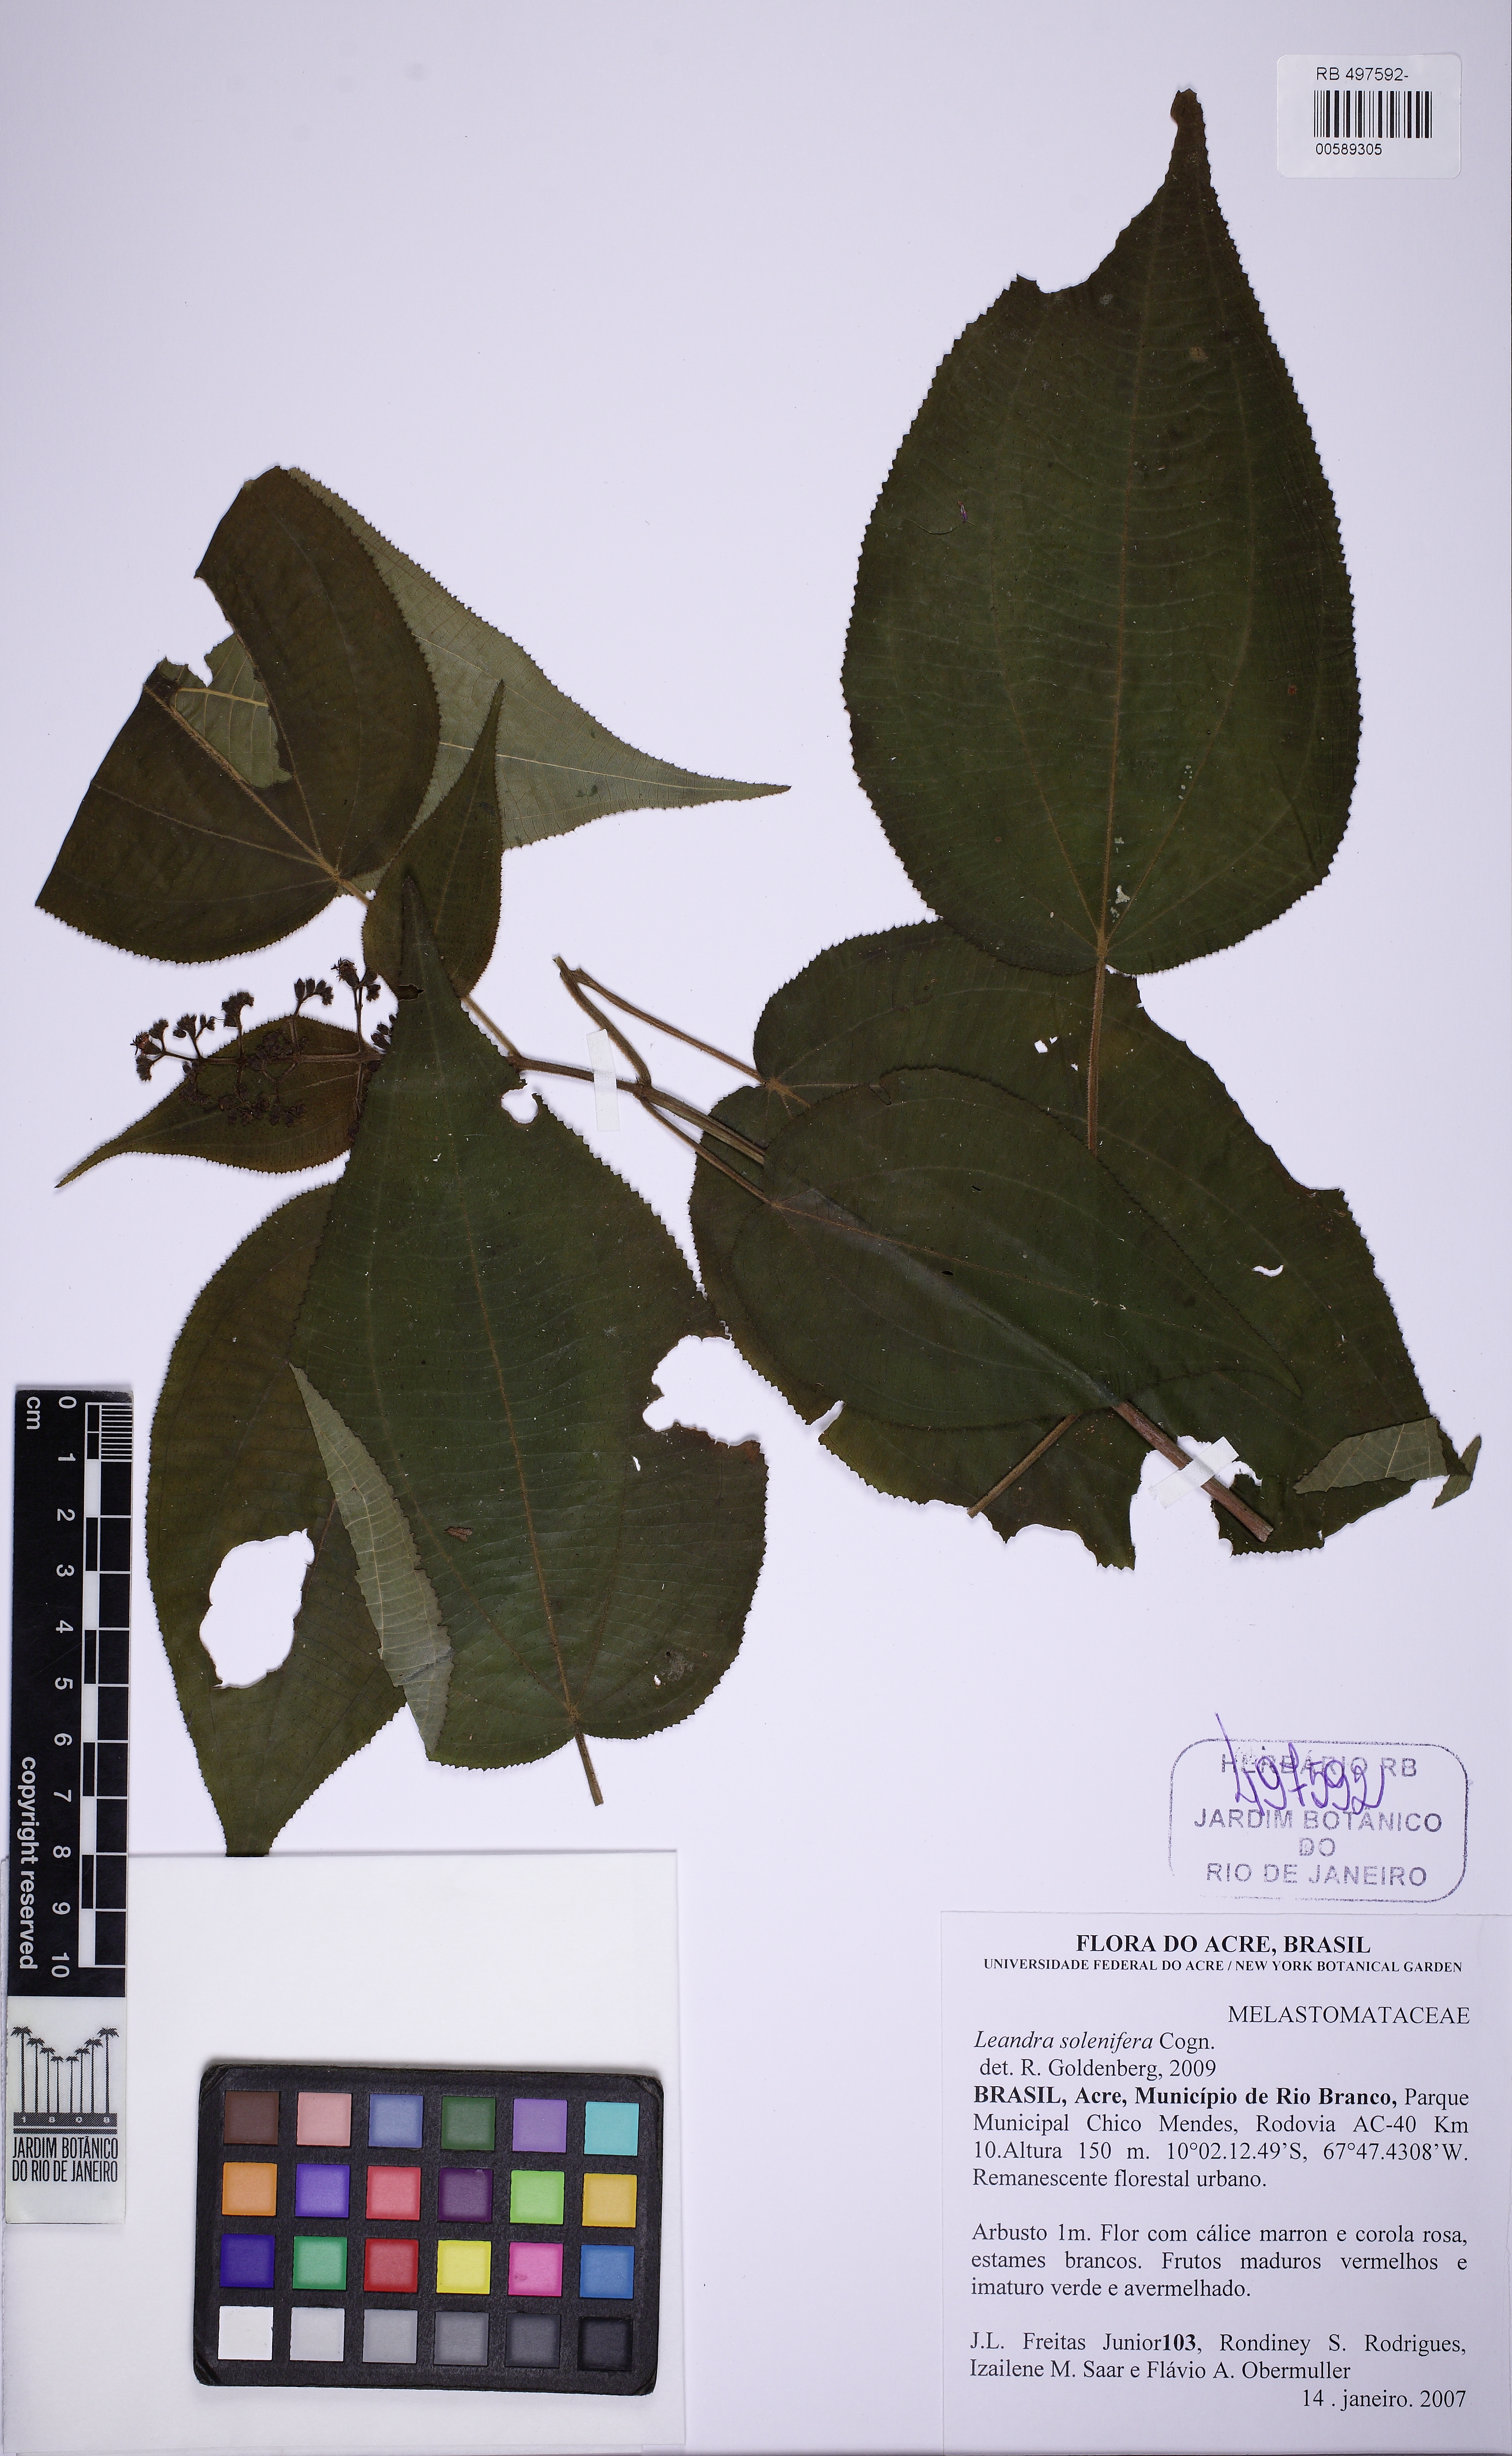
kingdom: Plantae
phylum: Tracheophyta
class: Magnoliopsida
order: Myrtales
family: Melastomataceae
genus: Miconia
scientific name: Miconia solenifera
